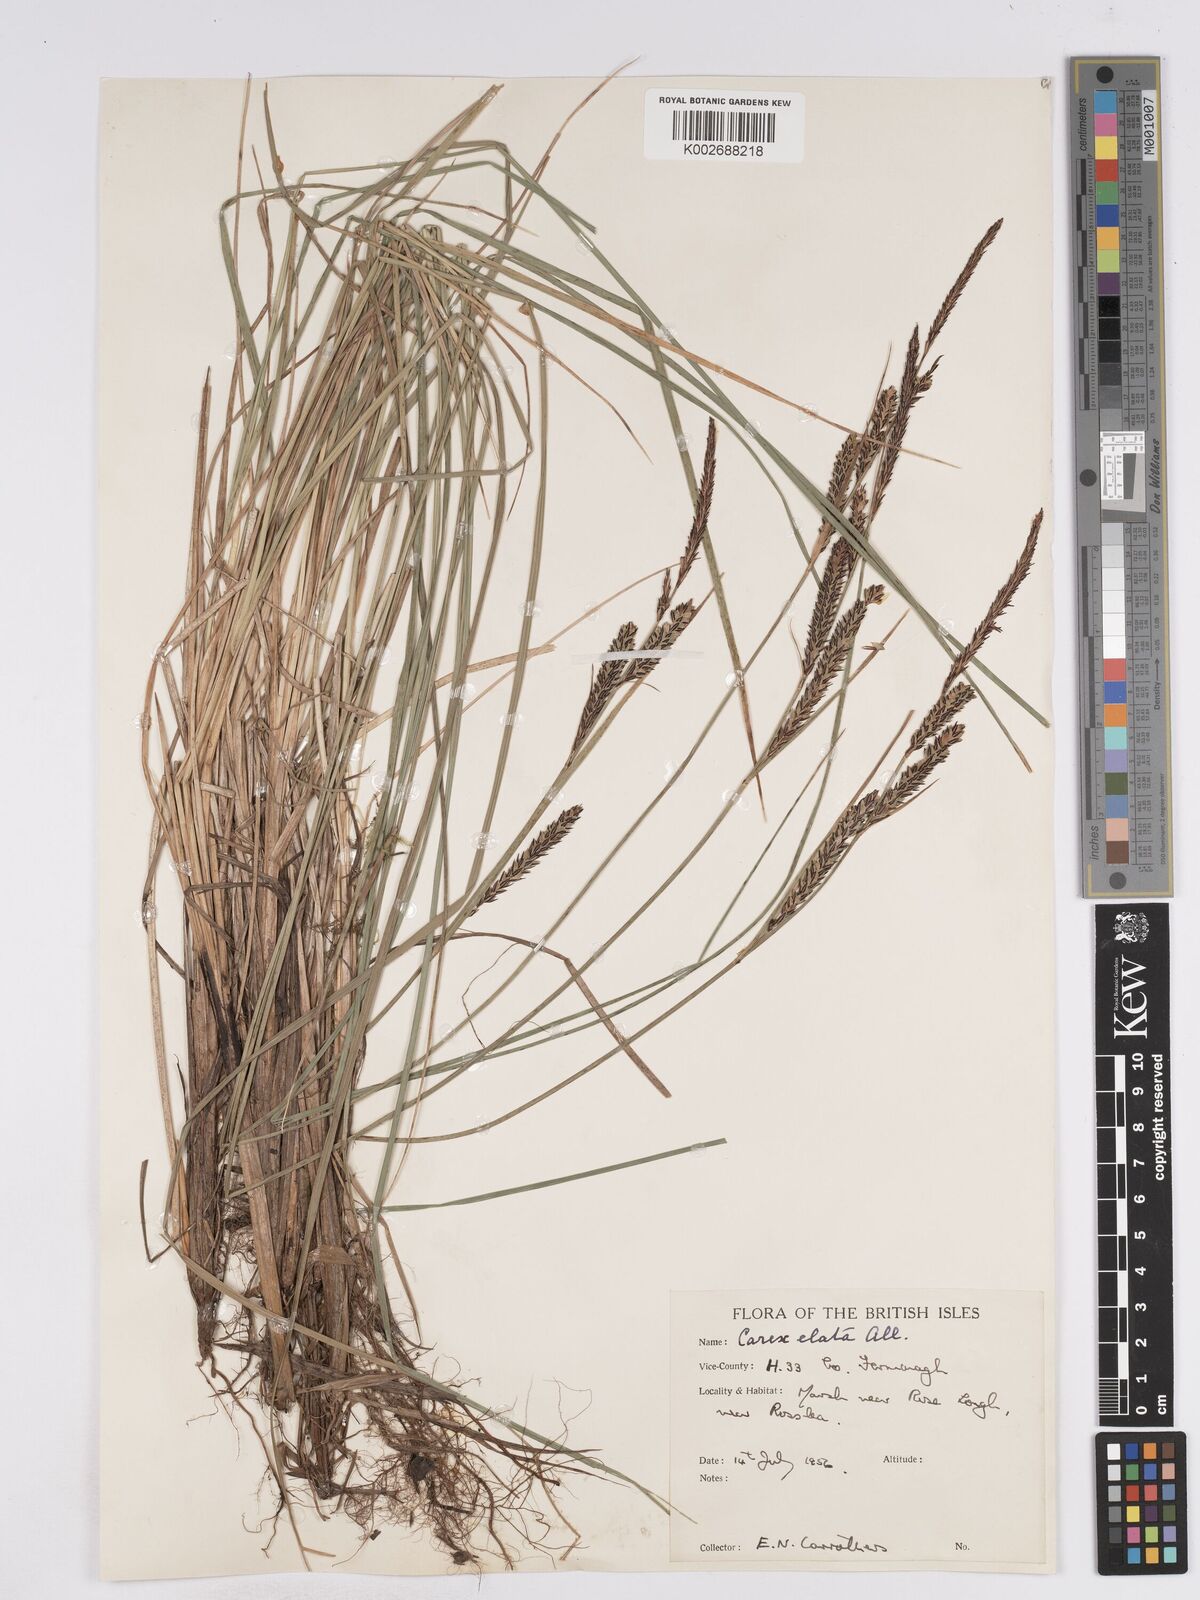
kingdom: Plantae
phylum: Tracheophyta
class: Liliopsida
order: Poales
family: Cyperaceae
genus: Carex
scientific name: Carex elata
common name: Tufted sedge
